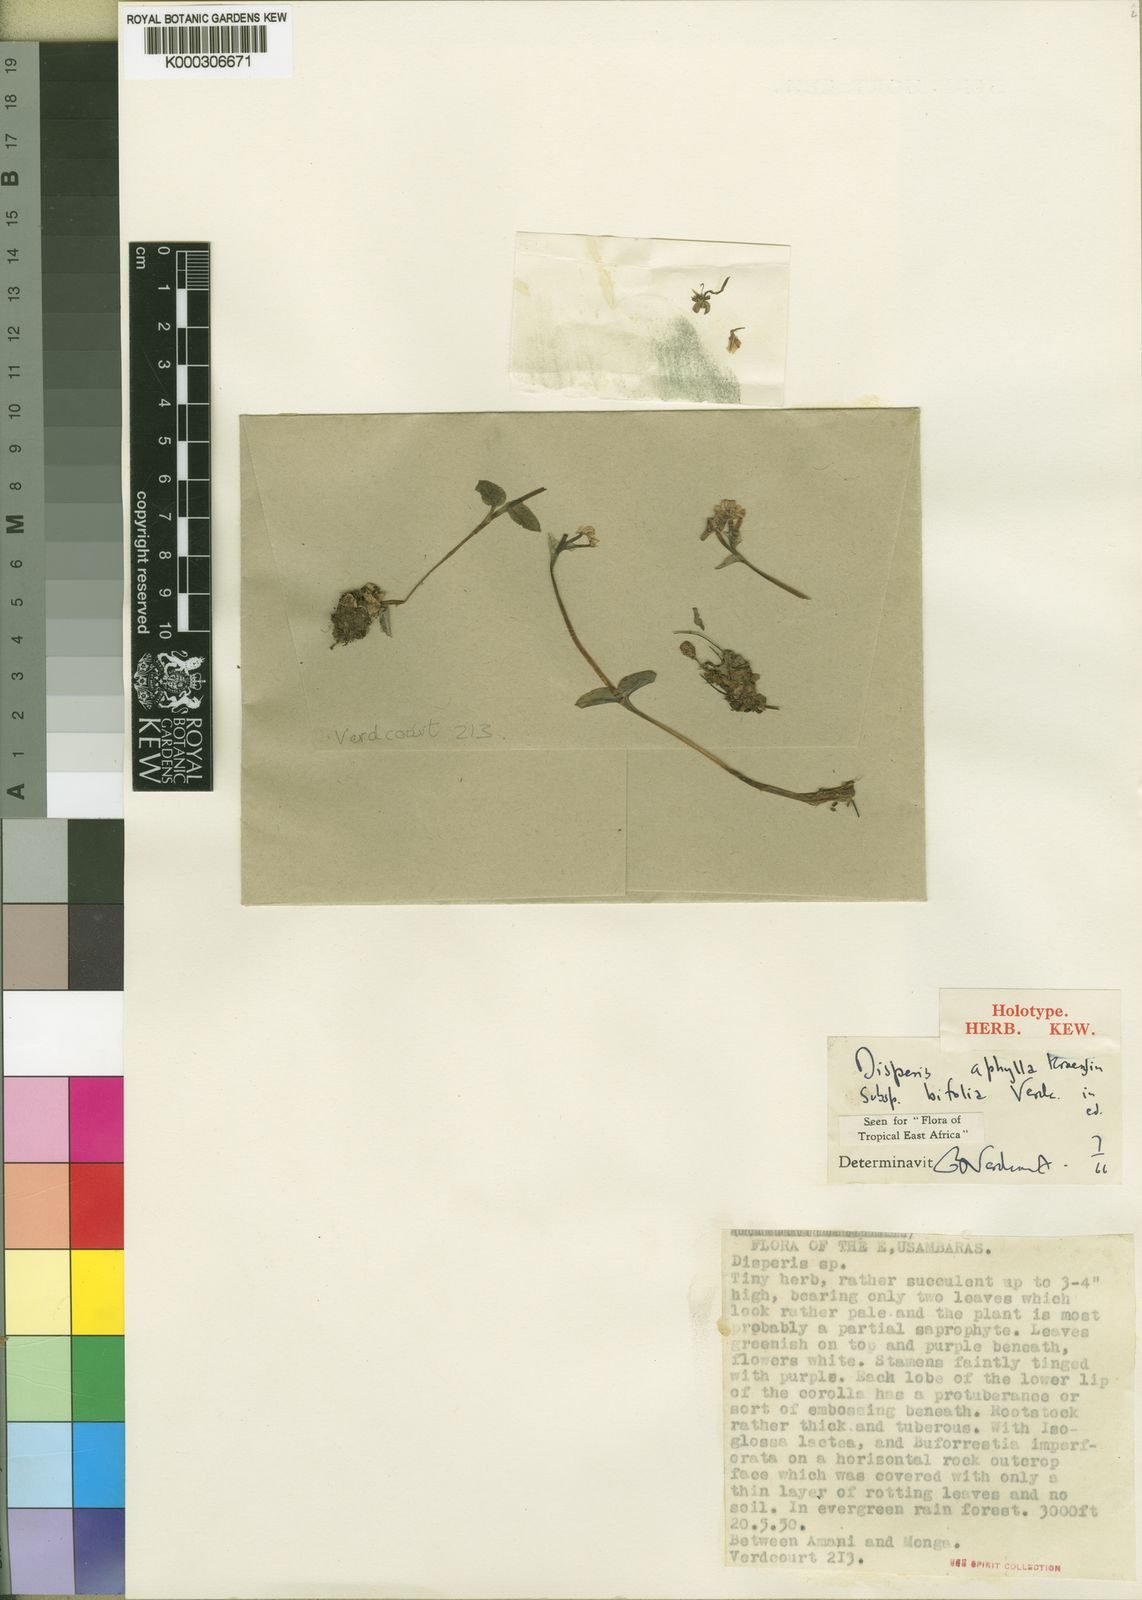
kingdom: Plantae
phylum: Tracheophyta
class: Liliopsida
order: Asparagales
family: Orchidaceae
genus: Disperis
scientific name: Disperis
